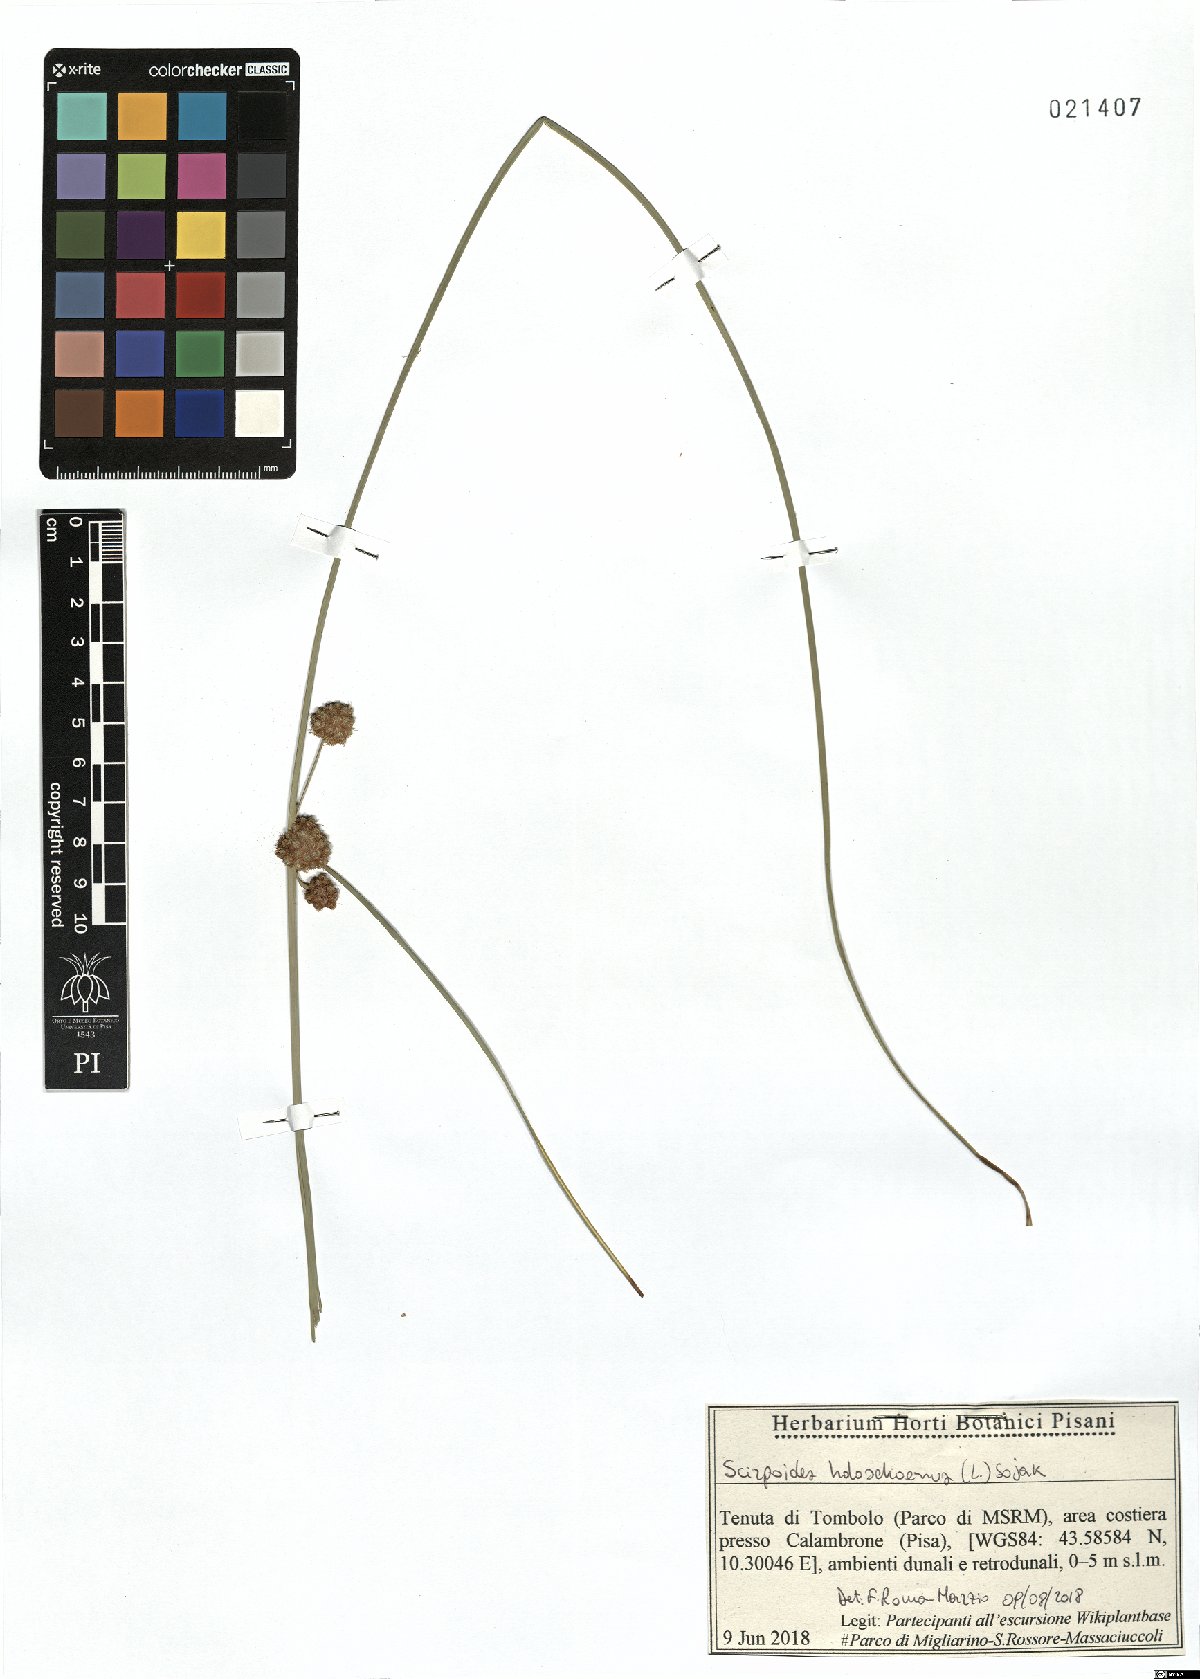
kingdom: Plantae
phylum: Tracheophyta
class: Liliopsida
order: Poales
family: Cyperaceae
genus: Scirpoides
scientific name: Scirpoides holoschoenus
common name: Round-headed club-rush
